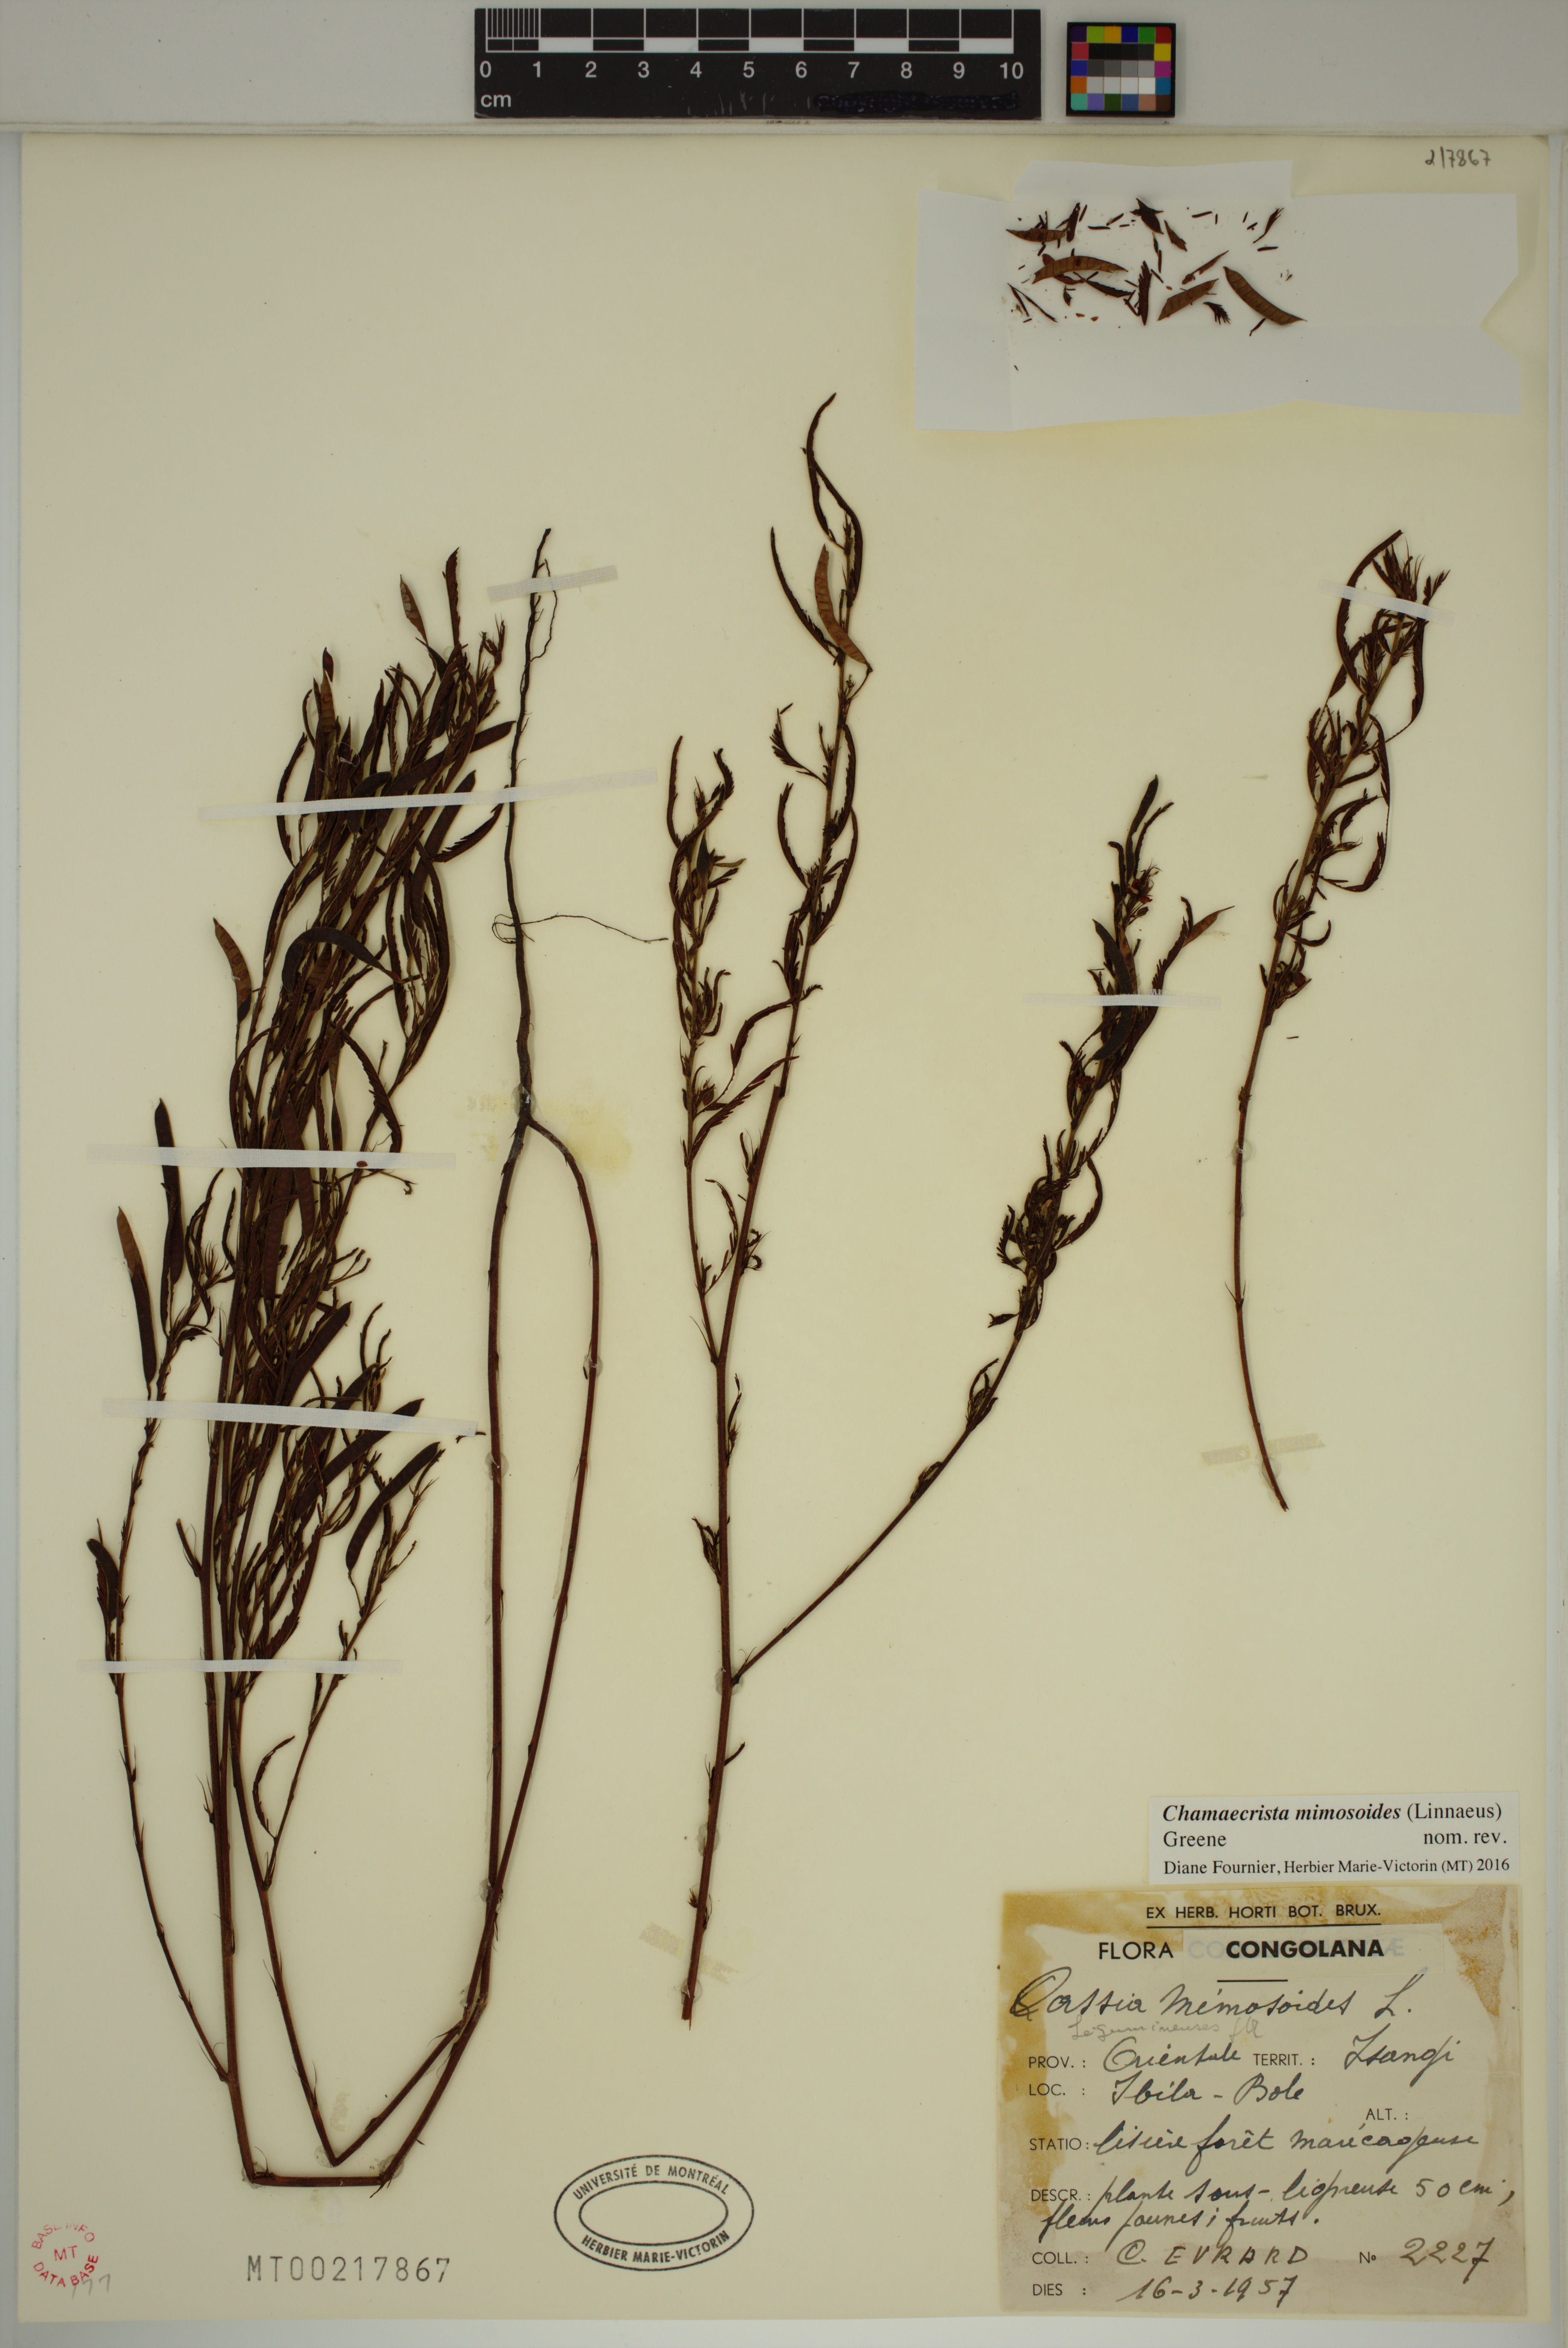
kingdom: Plantae
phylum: Tracheophyta
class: Magnoliopsida
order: Fabales
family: Fabaceae
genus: Chamaecrista
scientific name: Chamaecrista mimosoides
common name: Fish-bone cassia
